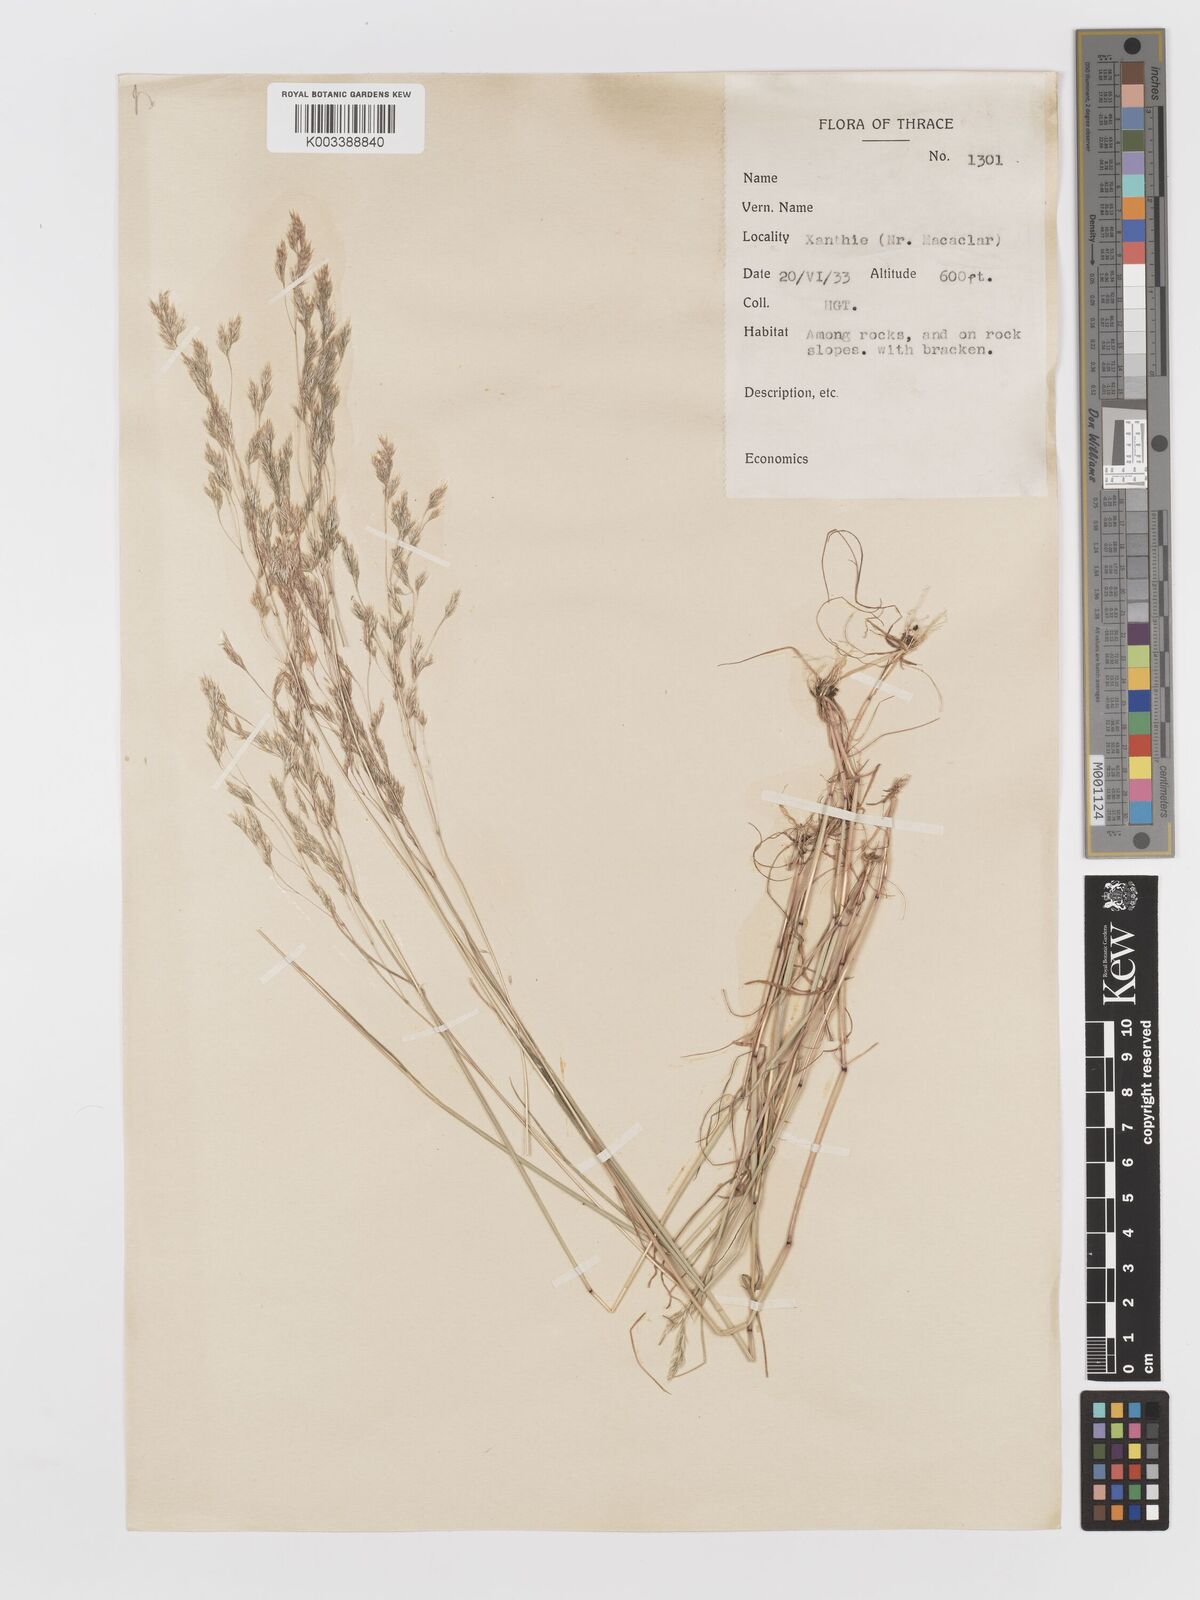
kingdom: Plantae
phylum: Tracheophyta
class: Liliopsida
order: Poales
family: Poaceae
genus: Corynephorus
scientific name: Corynephorus divaricatus
